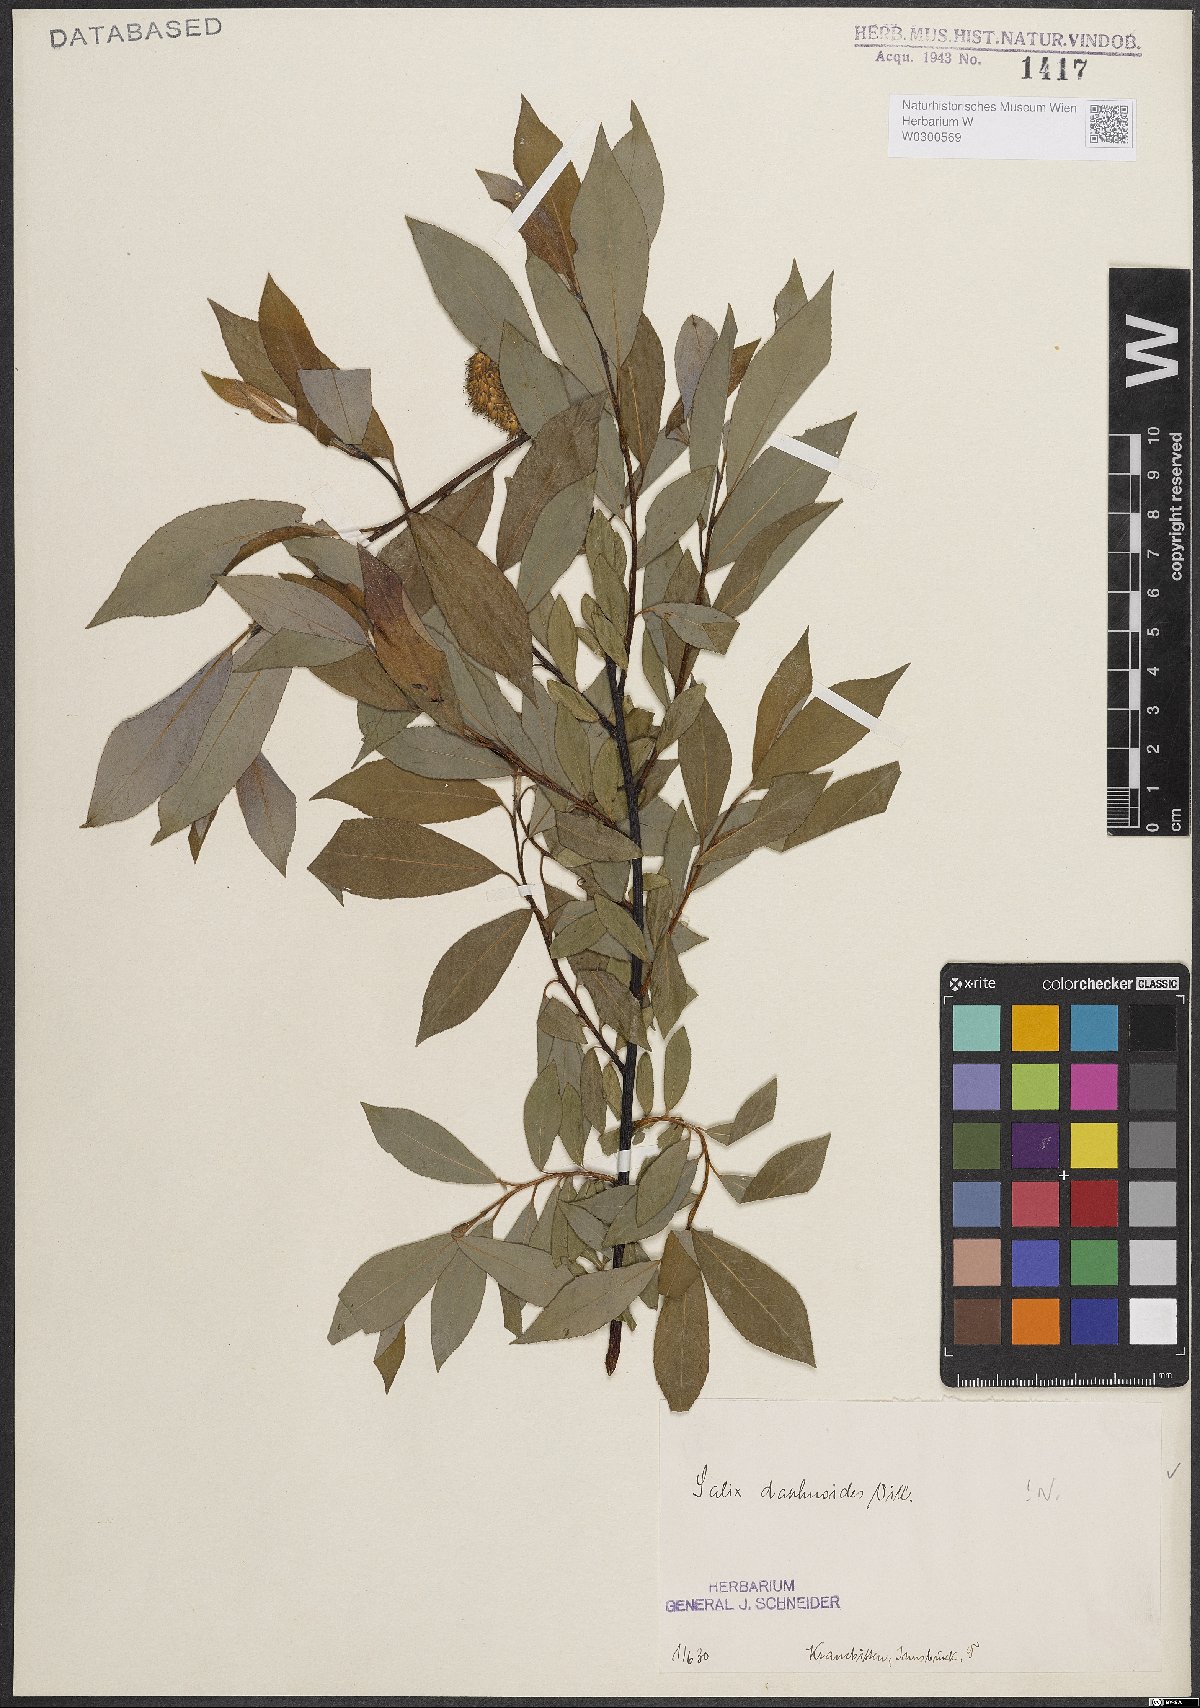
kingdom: Plantae
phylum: Tracheophyta
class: Magnoliopsida
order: Malpighiales
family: Salicaceae
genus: Salix
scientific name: Salix daphnoides
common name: European violet-willow
